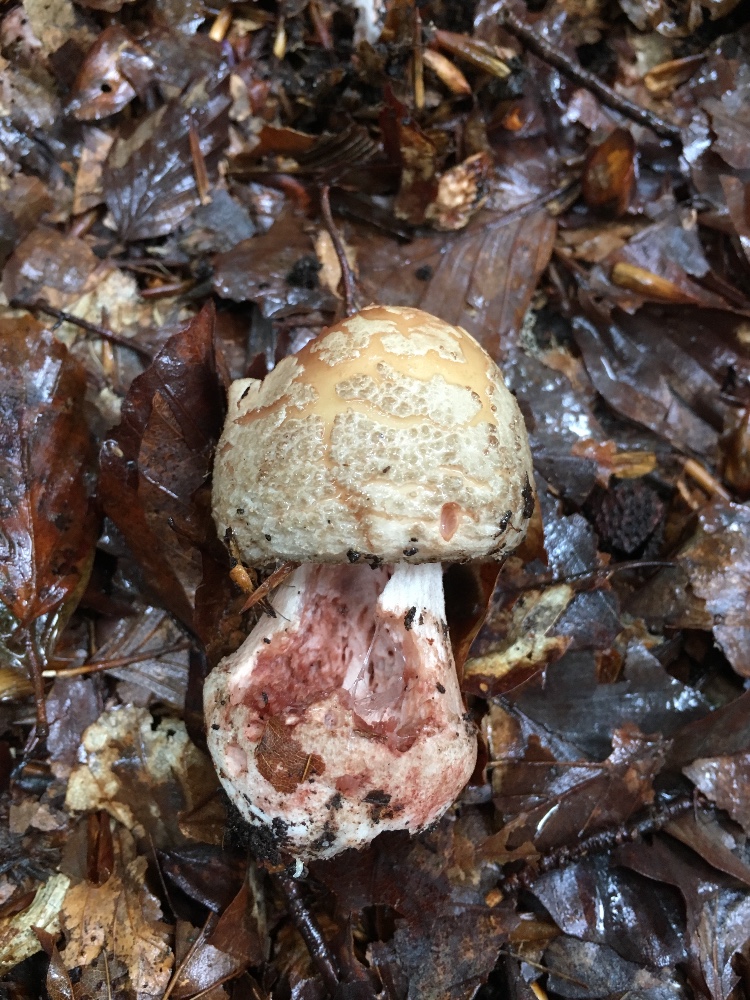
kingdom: Fungi
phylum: Basidiomycota
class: Agaricomycetes
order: Agaricales
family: Amanitaceae
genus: Amanita
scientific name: Amanita rubescens
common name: rødmende fluesvamp
